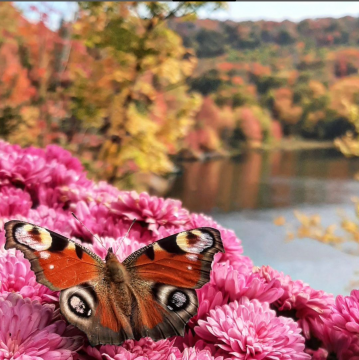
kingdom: Animalia
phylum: Arthropoda
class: Insecta
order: Lepidoptera
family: Nymphalidae
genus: Aglais
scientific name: Aglais io
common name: European Peacock
